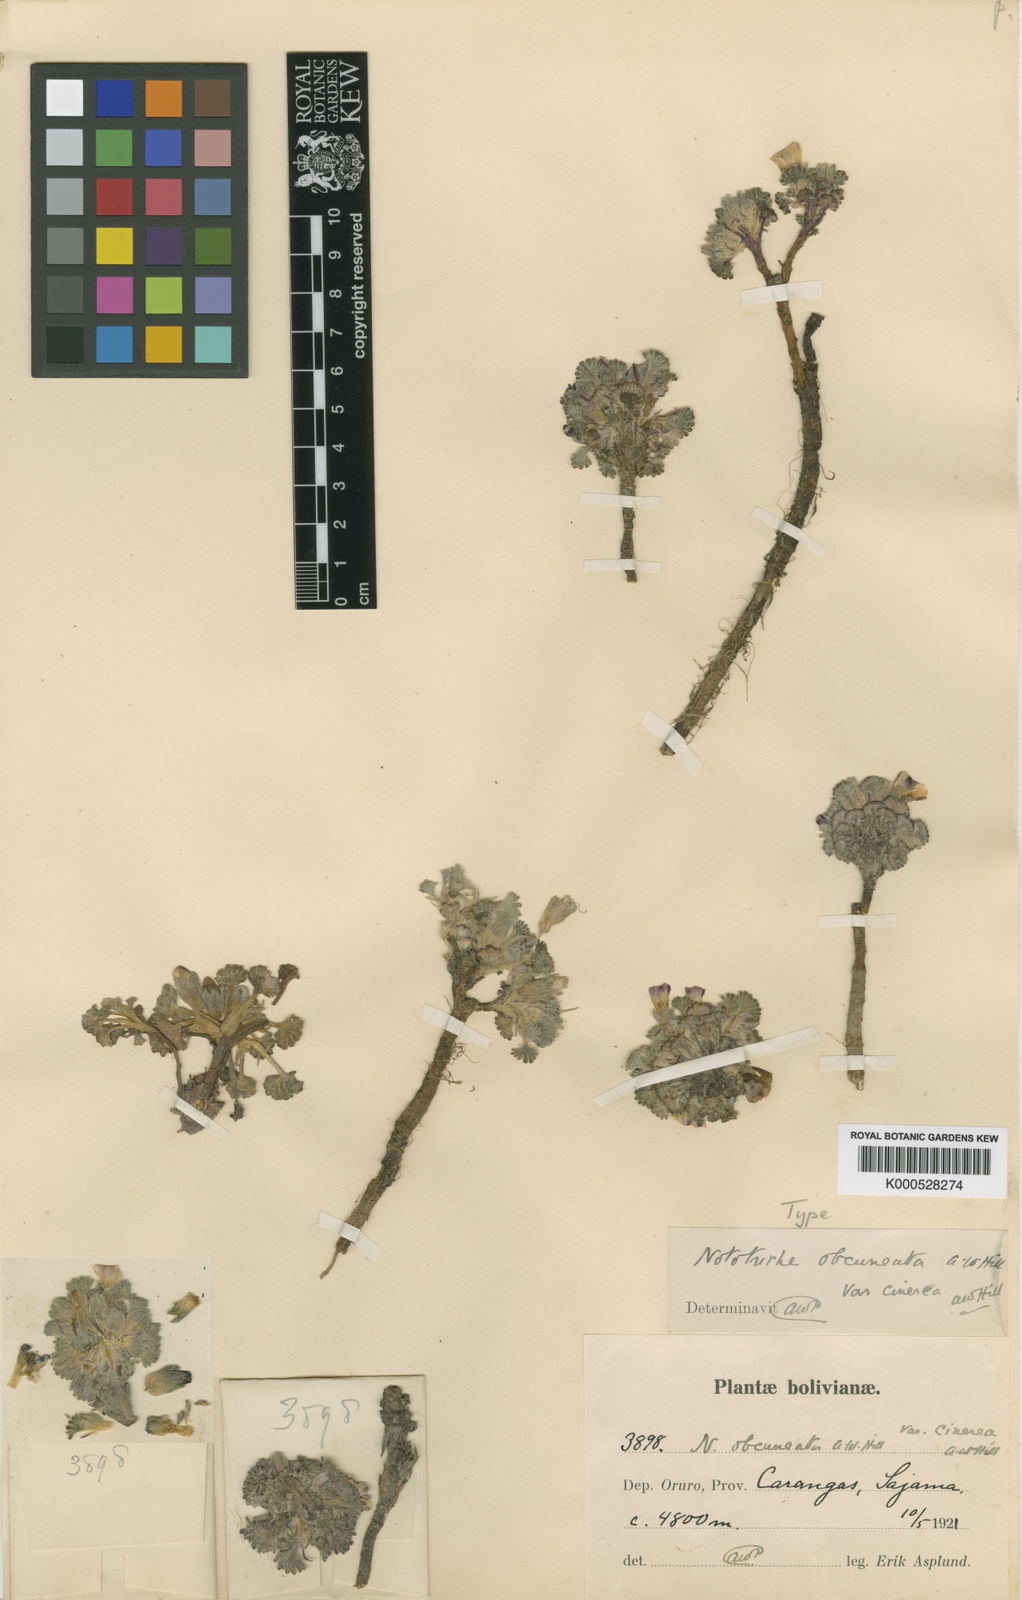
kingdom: Plantae
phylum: Tracheophyta
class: Magnoliopsida
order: Malvales
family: Malvaceae
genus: Nototriche
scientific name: Nototriche obcuneata
